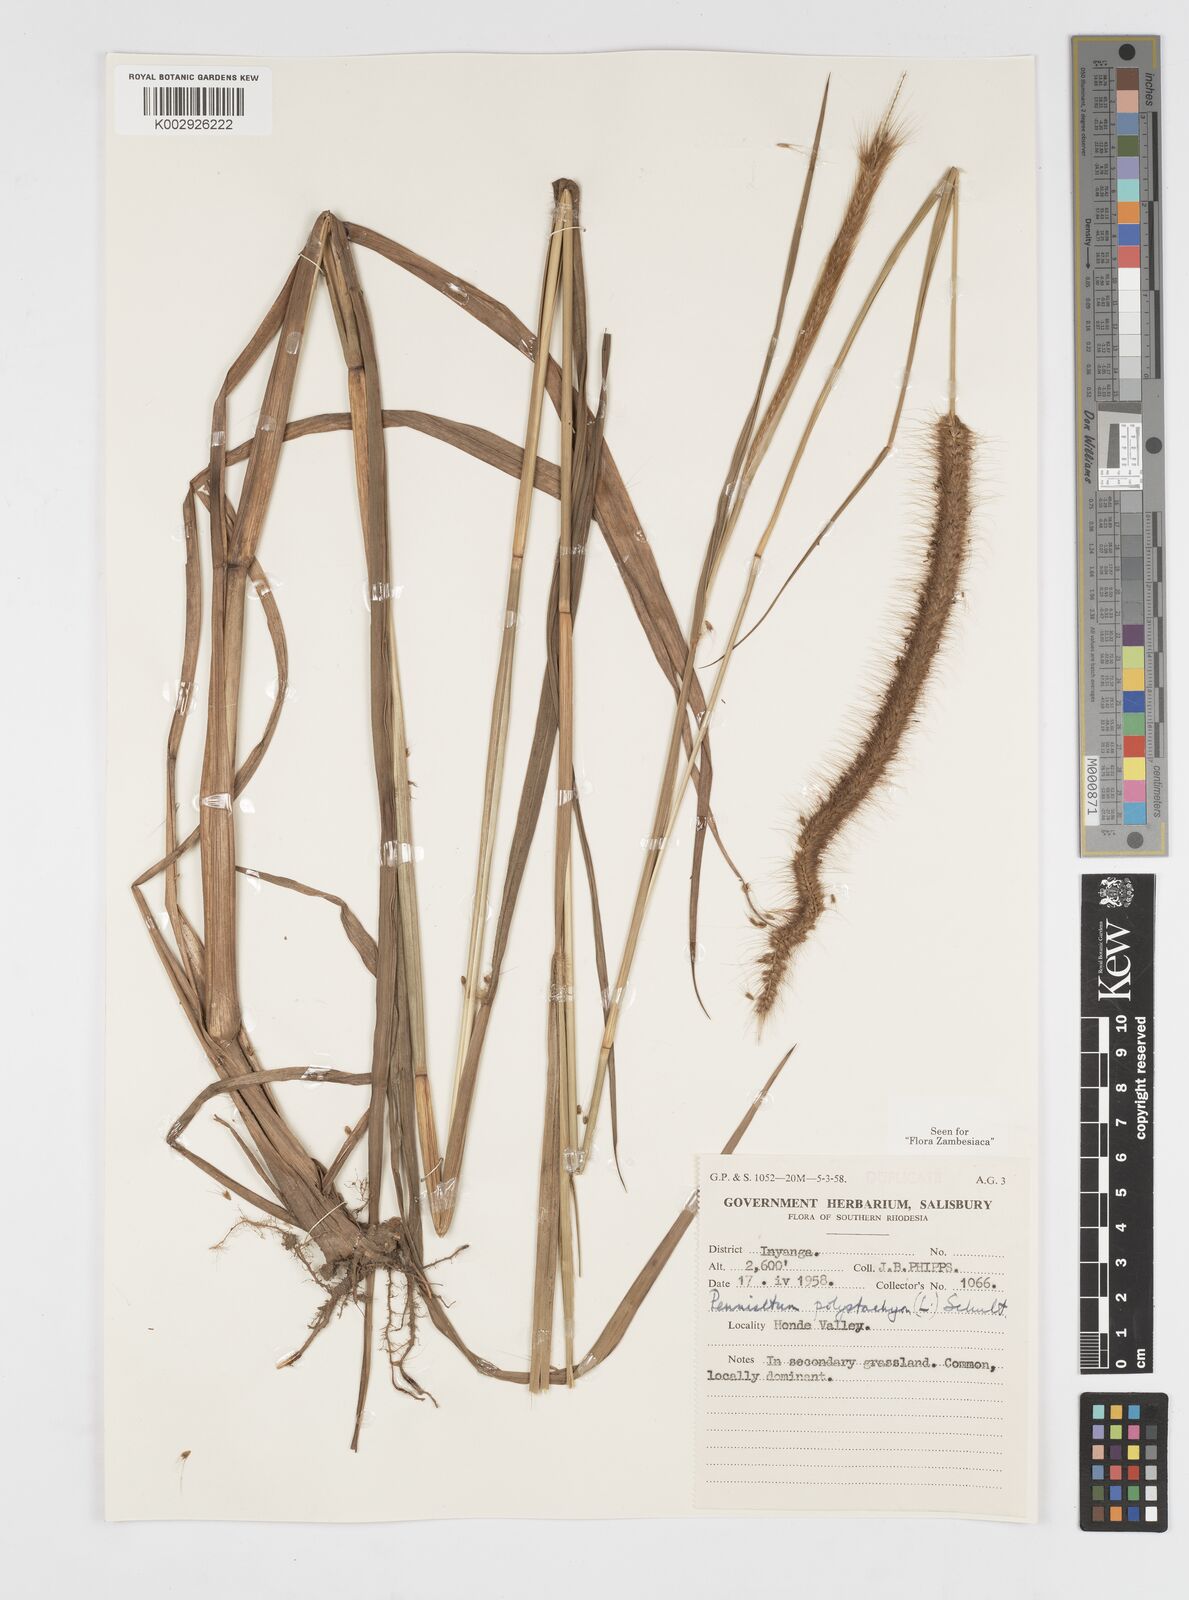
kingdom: Plantae
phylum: Tracheophyta
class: Liliopsida
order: Poales
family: Poaceae
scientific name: Poaceae
